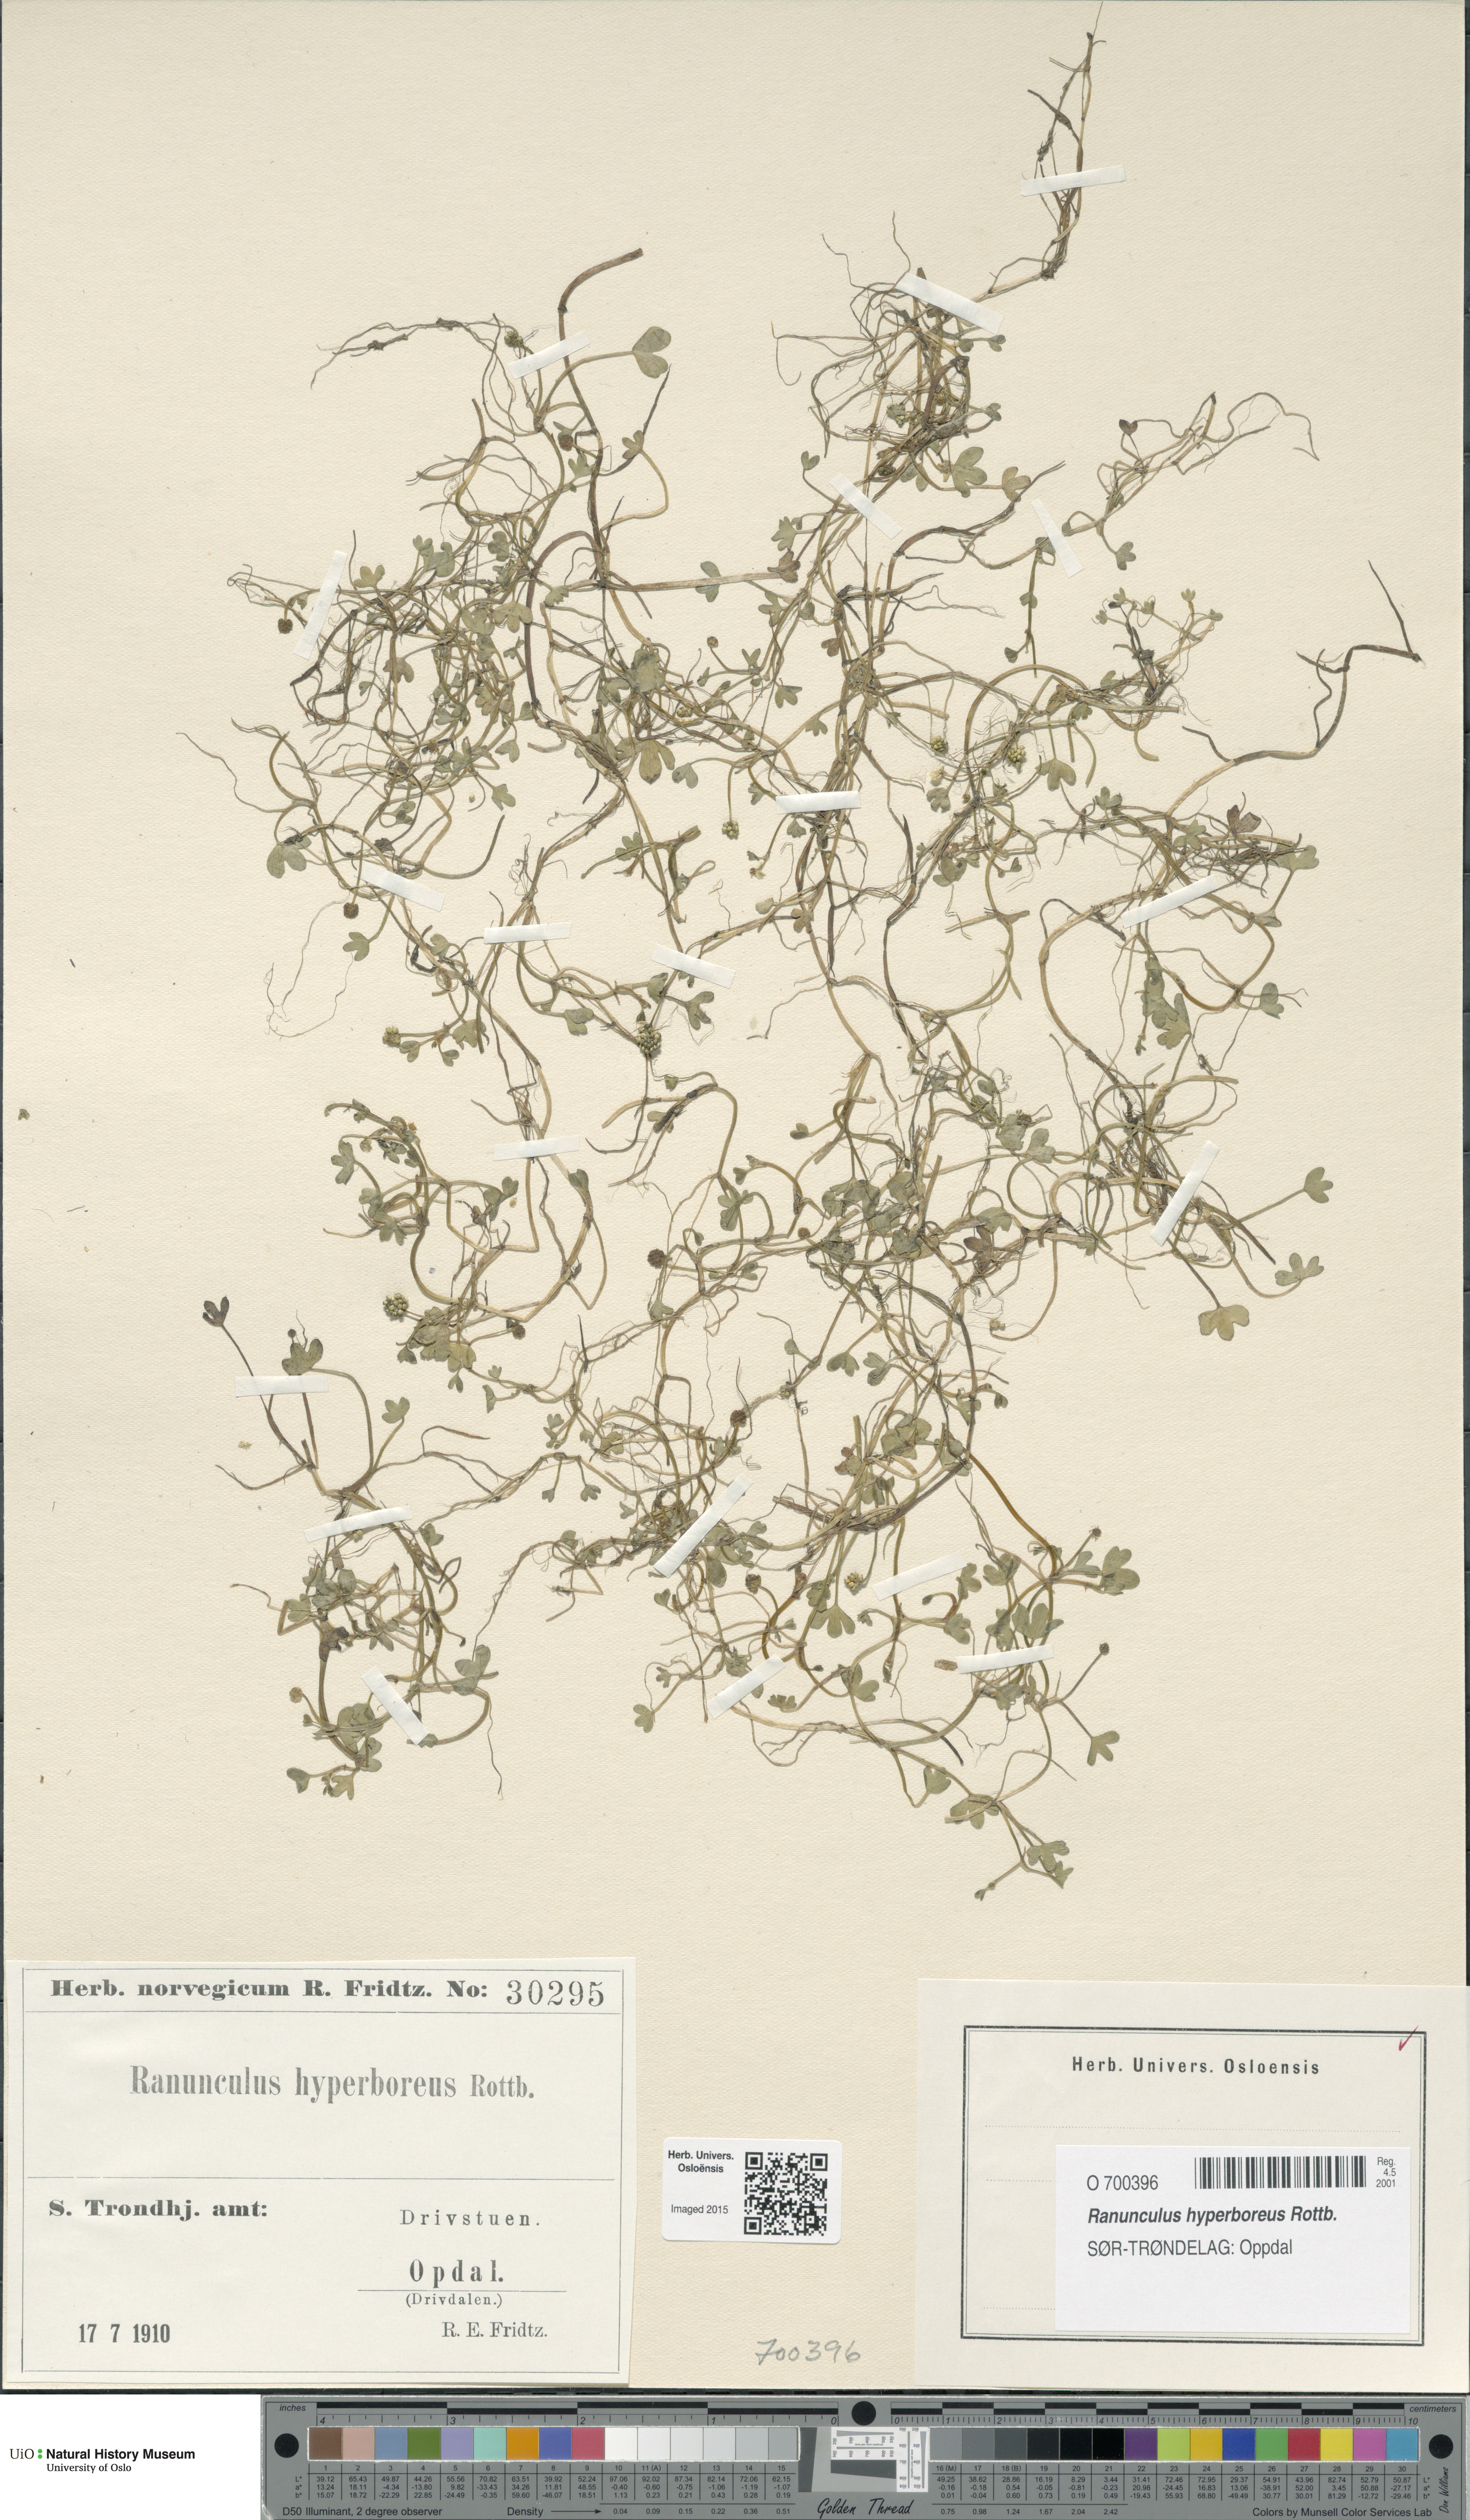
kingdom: Plantae
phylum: Tracheophyta
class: Magnoliopsida
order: Ranunculales
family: Ranunculaceae
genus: Ranunculus
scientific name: Ranunculus hyperboreus
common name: Arctic buttercup
